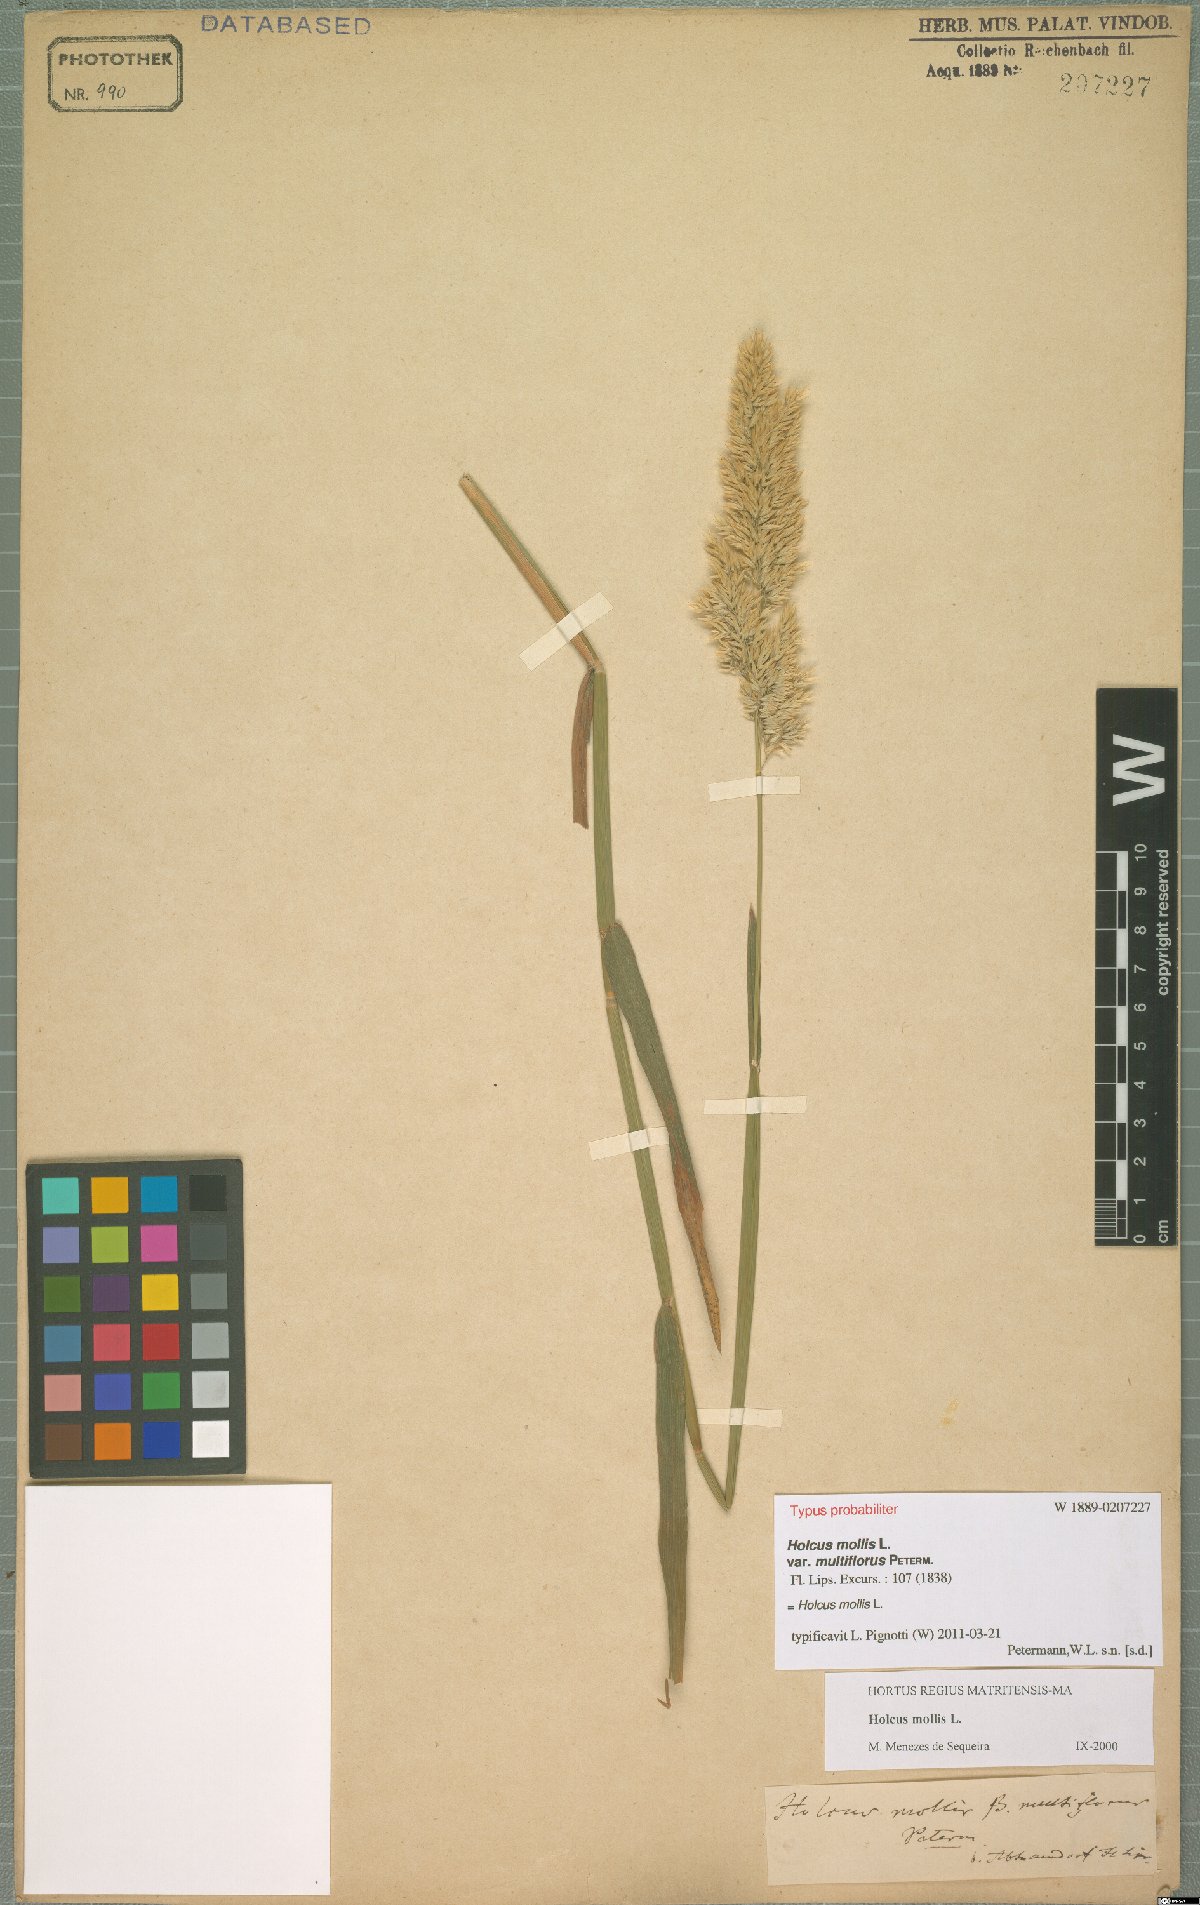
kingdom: Plantae
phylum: Tracheophyta
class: Liliopsida
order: Poales
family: Poaceae
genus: Holcus
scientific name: Holcus mollis
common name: Creeping velvetgrass
